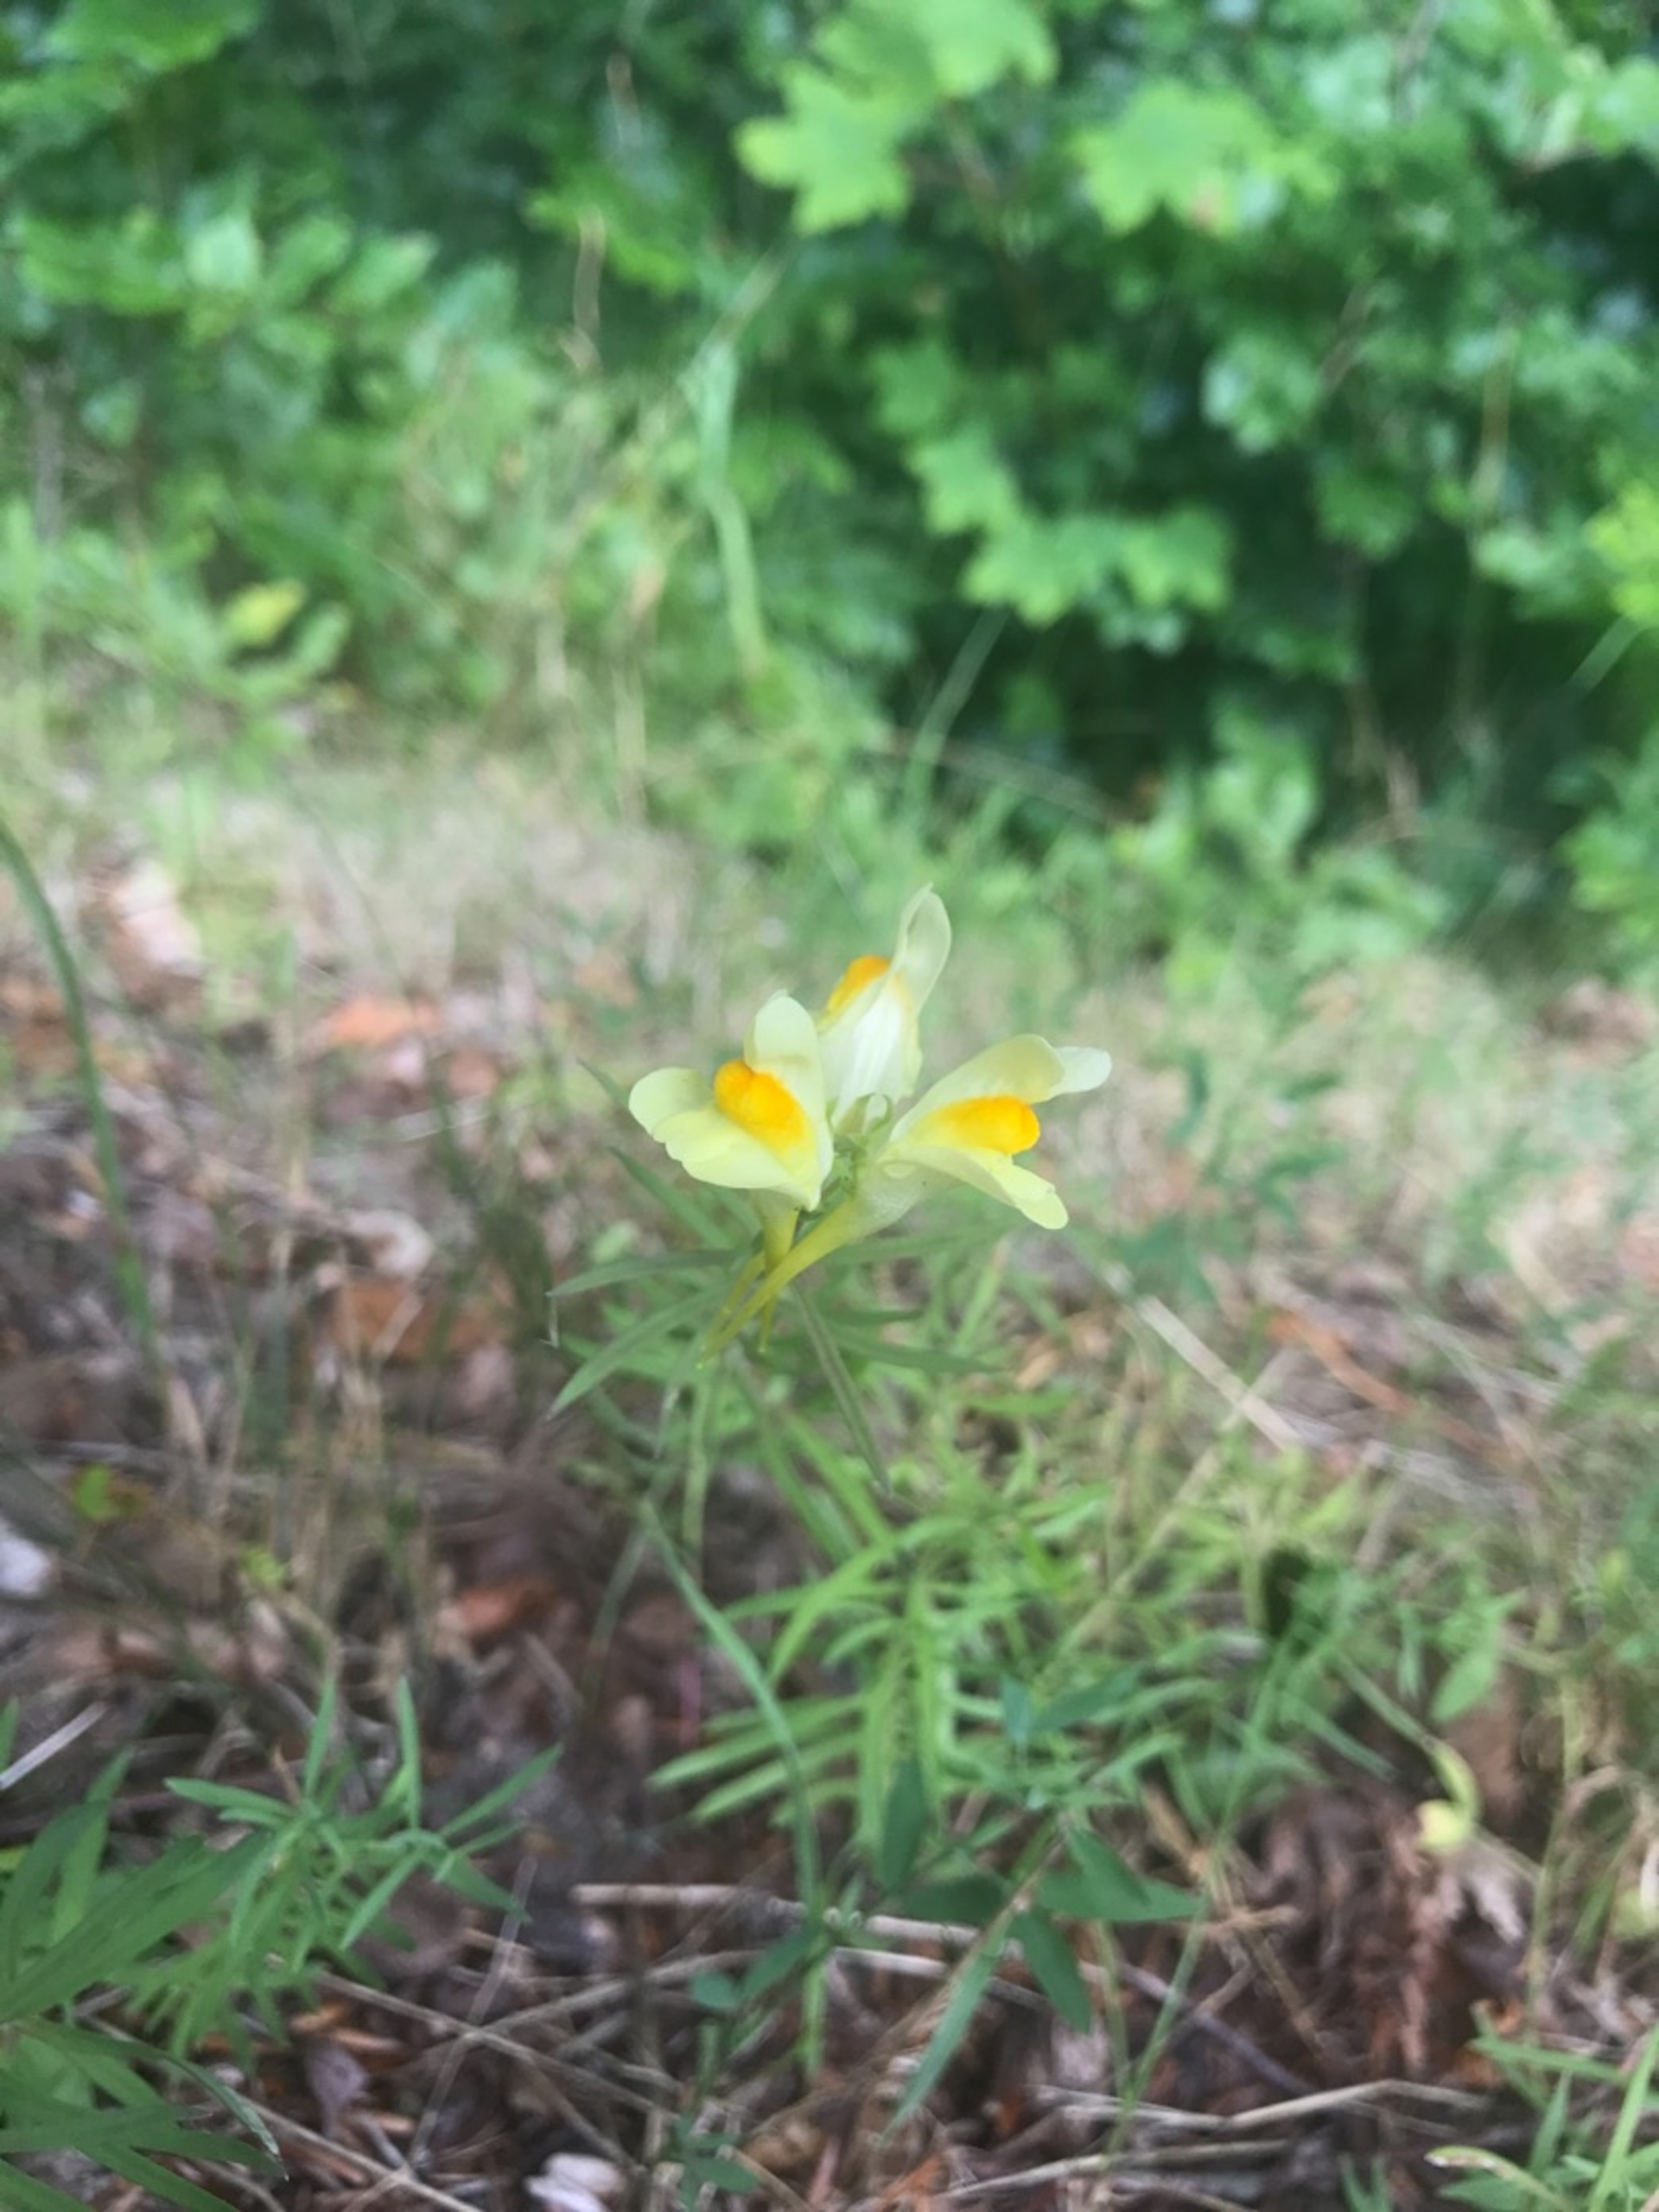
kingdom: Plantae
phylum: Tracheophyta
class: Magnoliopsida
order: Lamiales
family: Plantaginaceae
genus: Linaria
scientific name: Linaria vulgaris
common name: Almindelig torskemund
